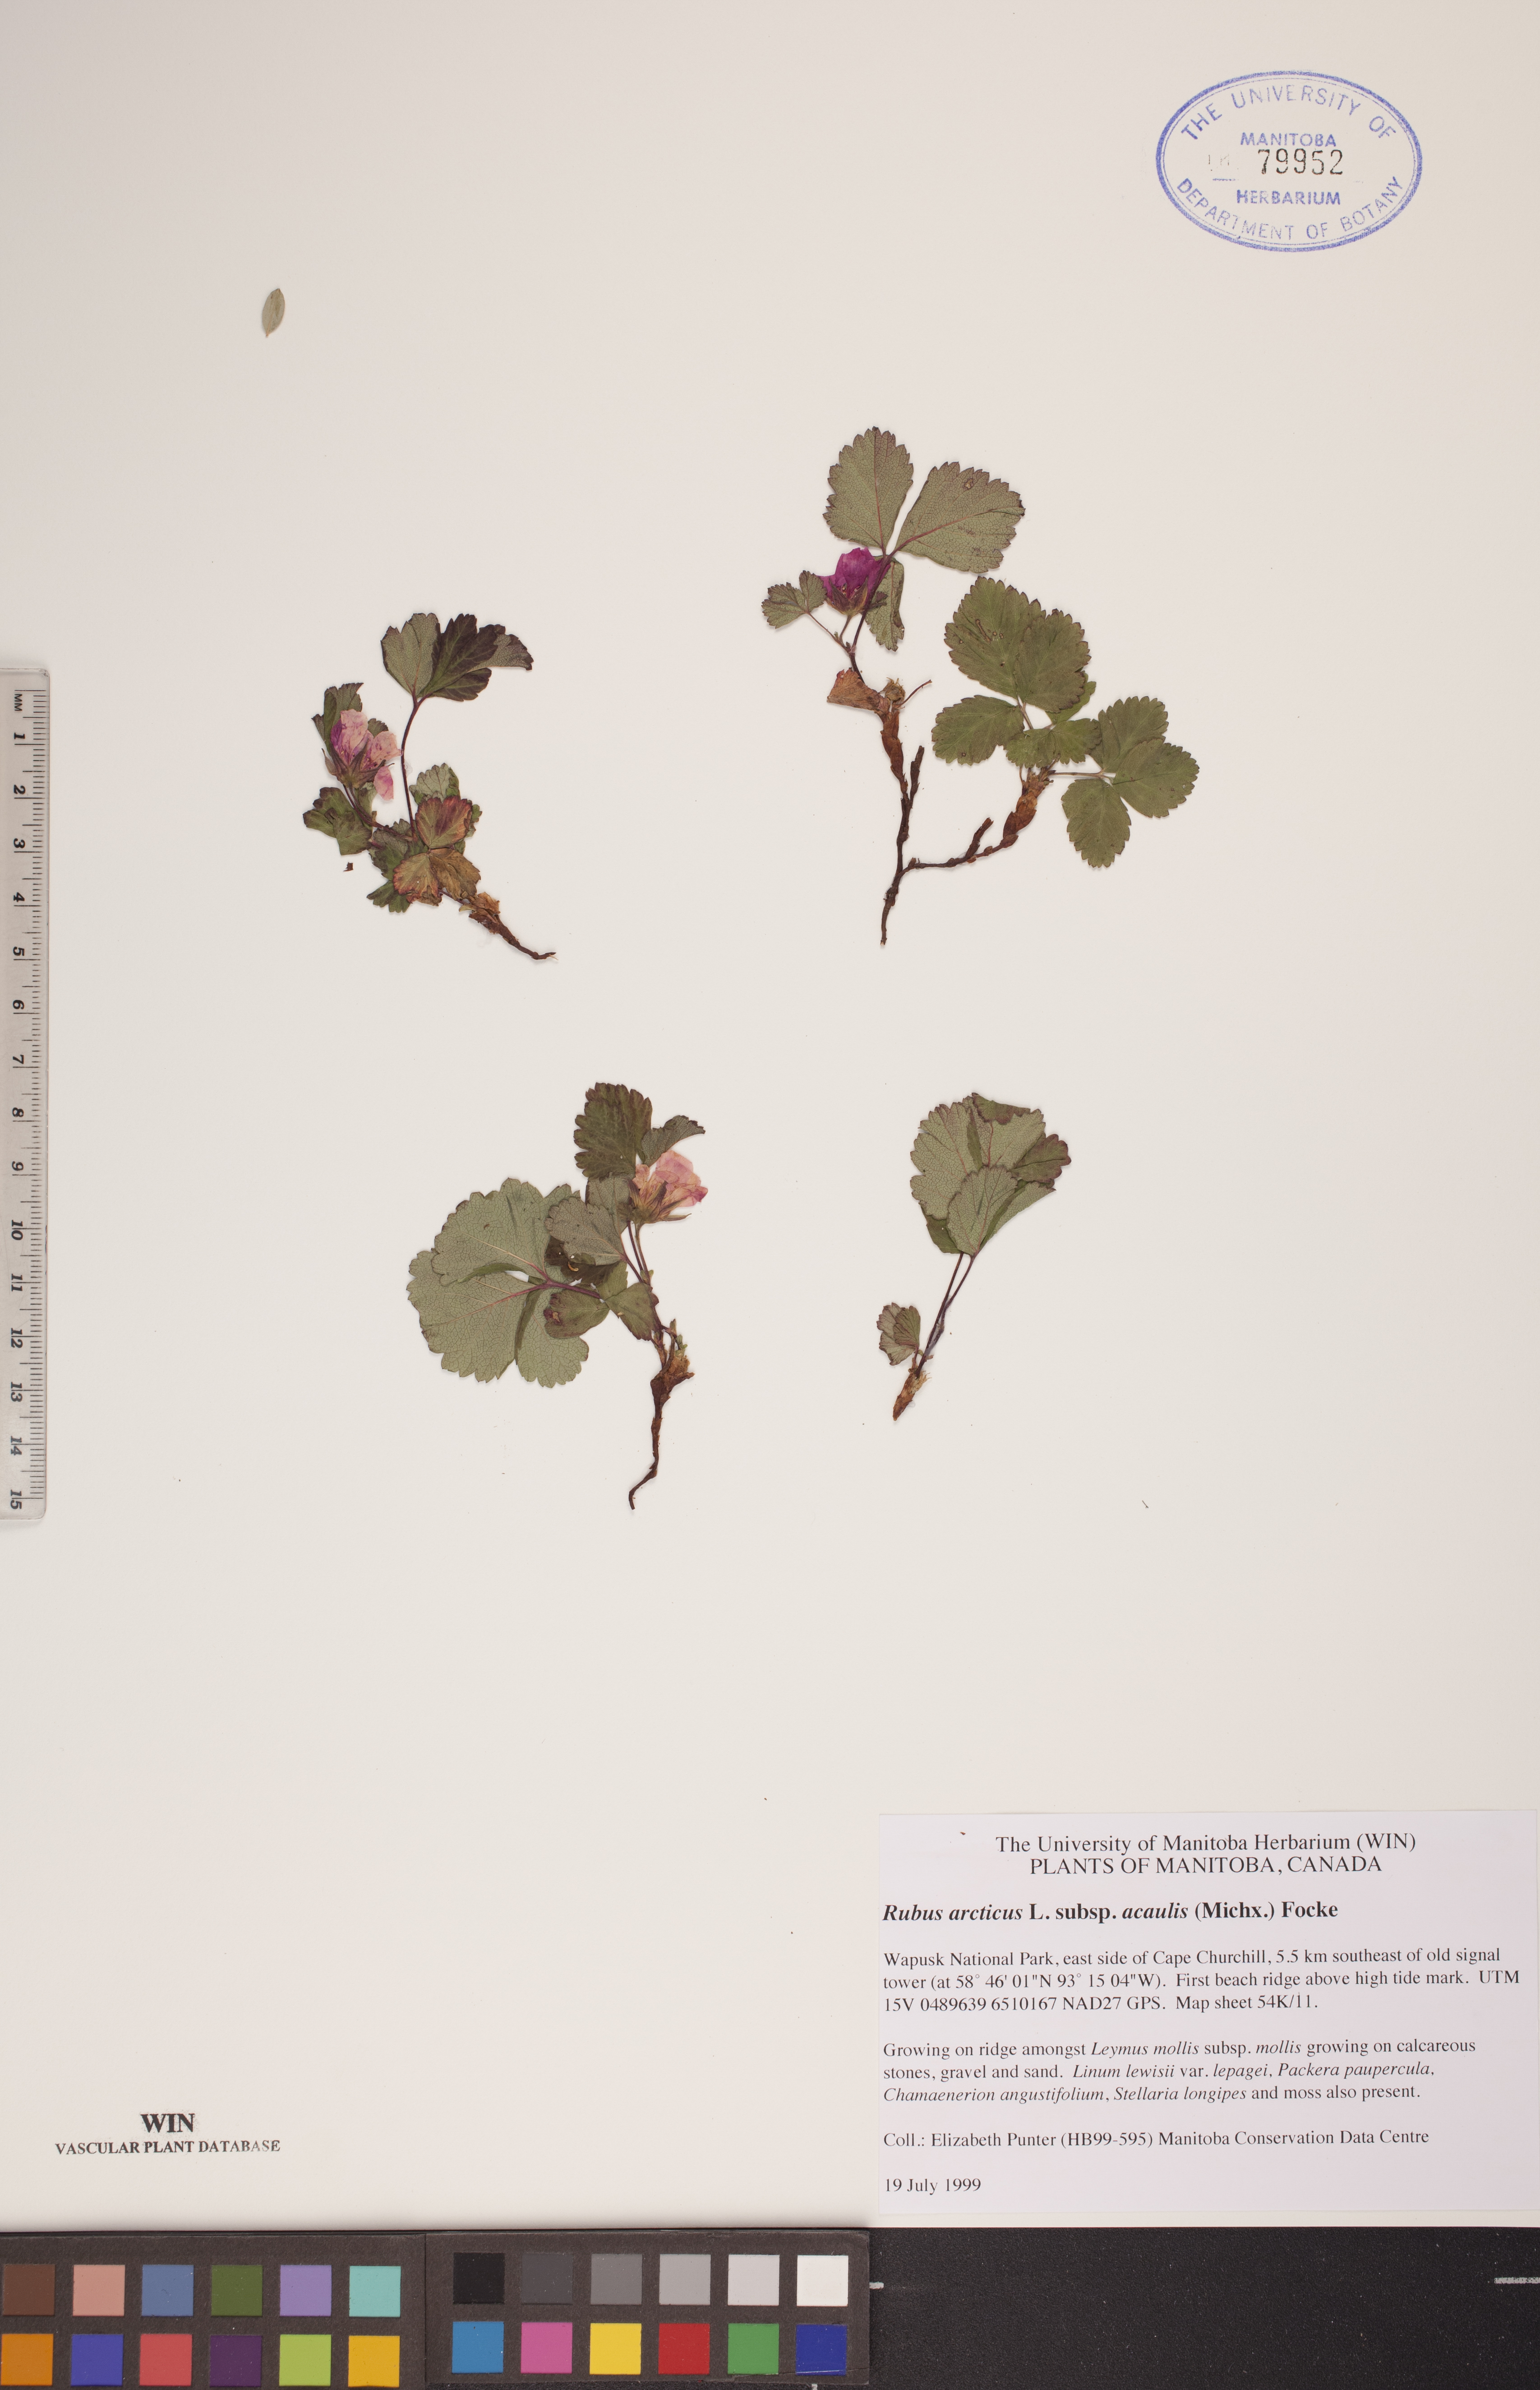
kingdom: Plantae
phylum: Tracheophyta
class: Magnoliopsida
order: Rosales
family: Rosaceae
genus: Rubus
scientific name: Rubus arcticus
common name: Arctic bramble
